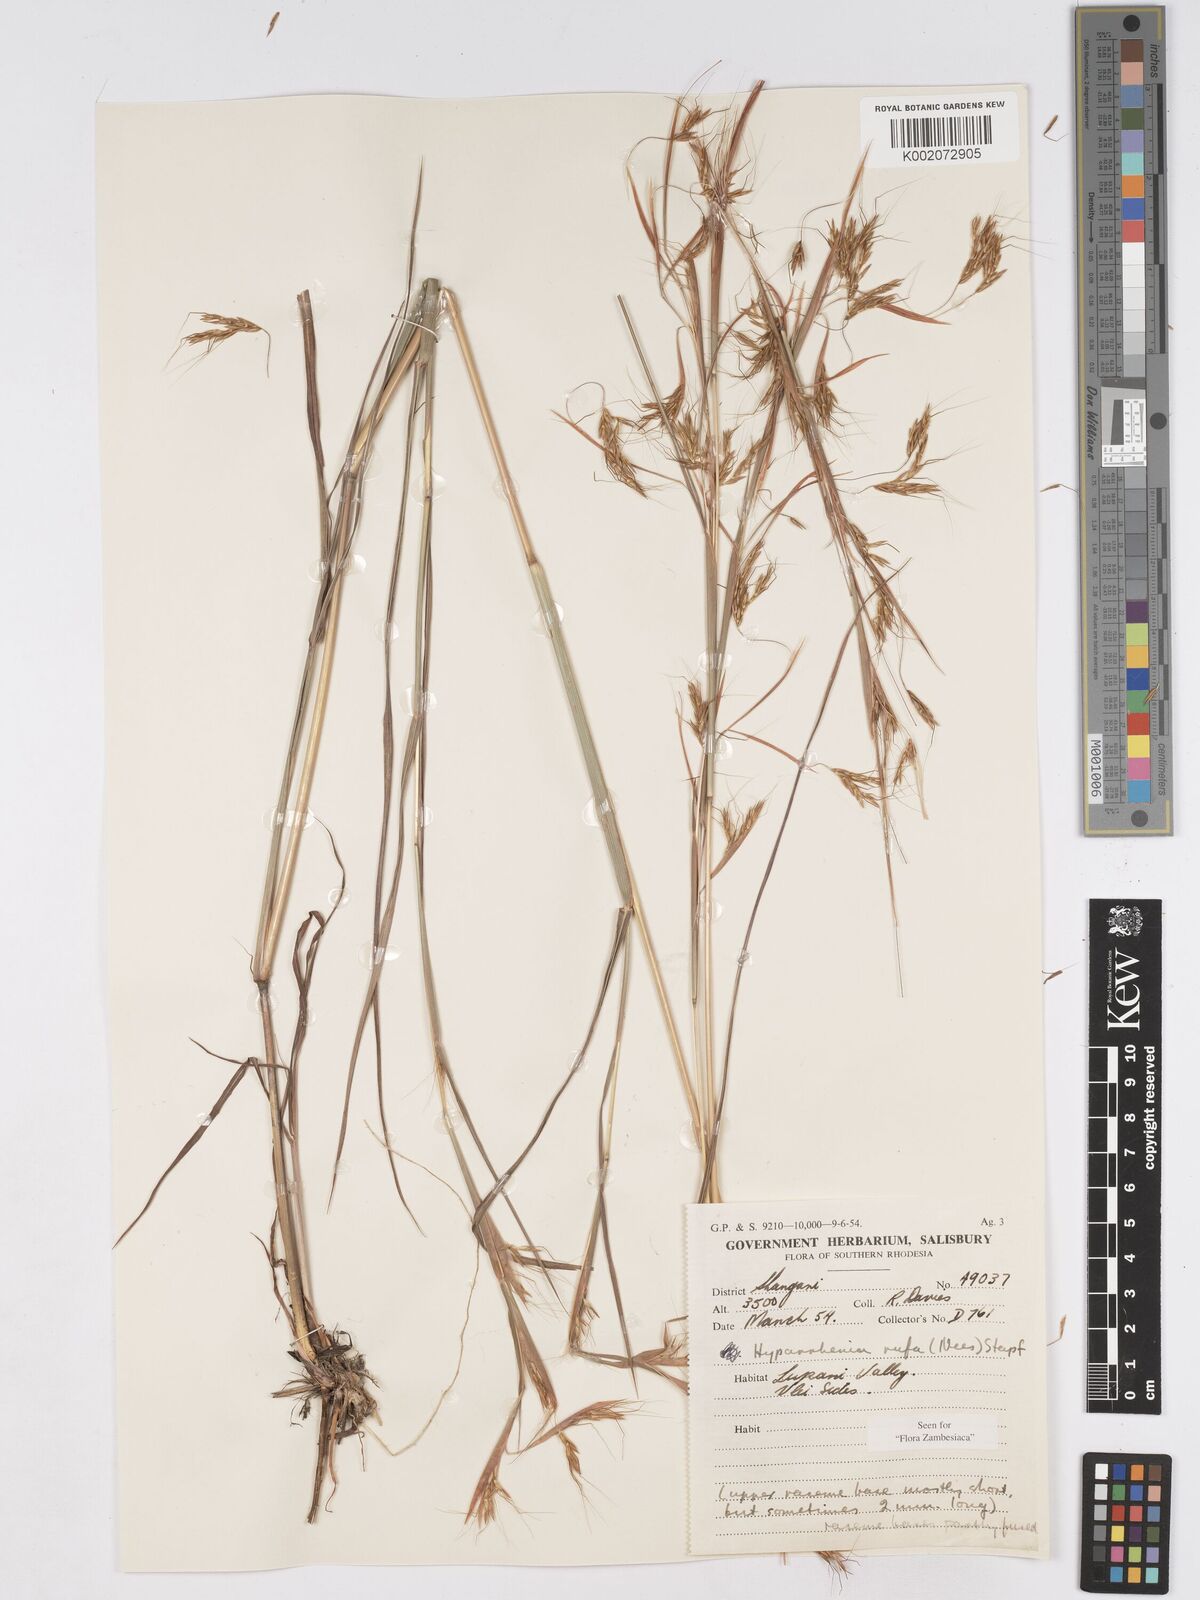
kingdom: Plantae
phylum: Tracheophyta
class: Liliopsida
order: Poales
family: Poaceae
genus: Hyparrhenia
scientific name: Hyparrhenia rufa
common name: Jaraguagrass
